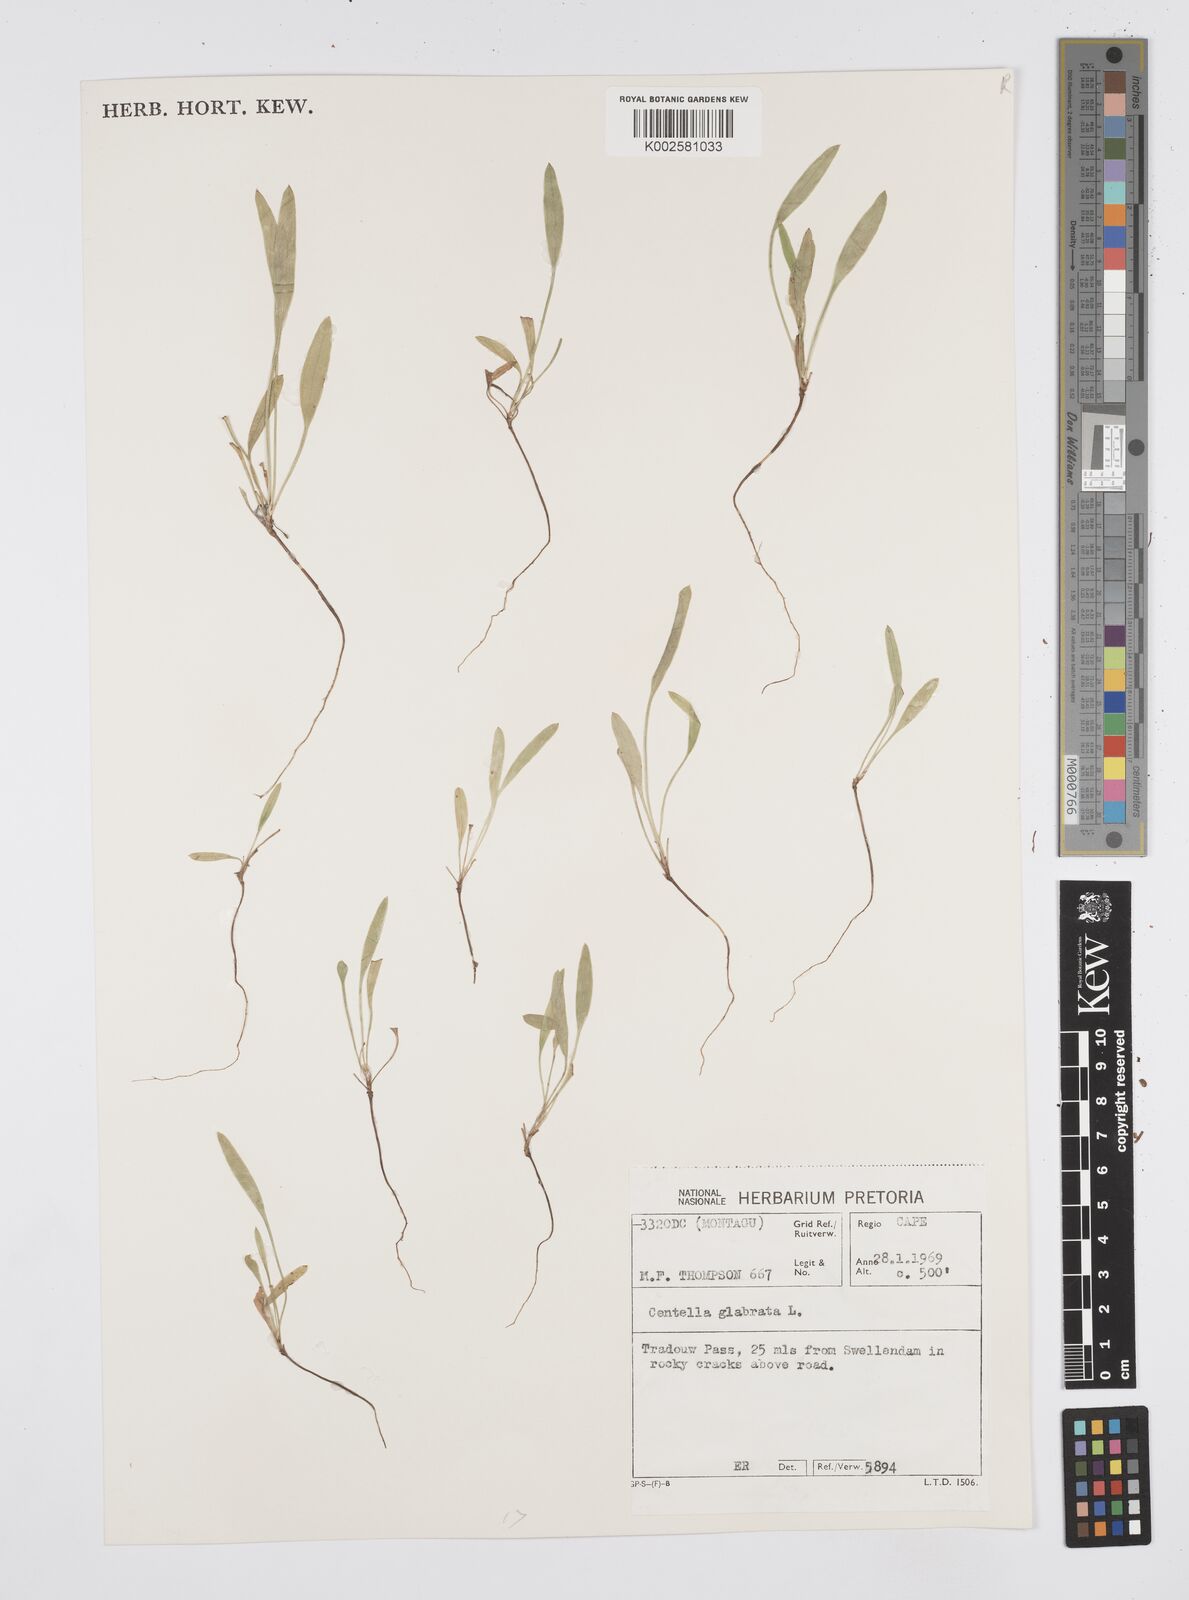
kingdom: Plantae
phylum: Tracheophyta
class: Magnoliopsida
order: Apiales
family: Apiaceae
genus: Centella
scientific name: Centella glabrata
